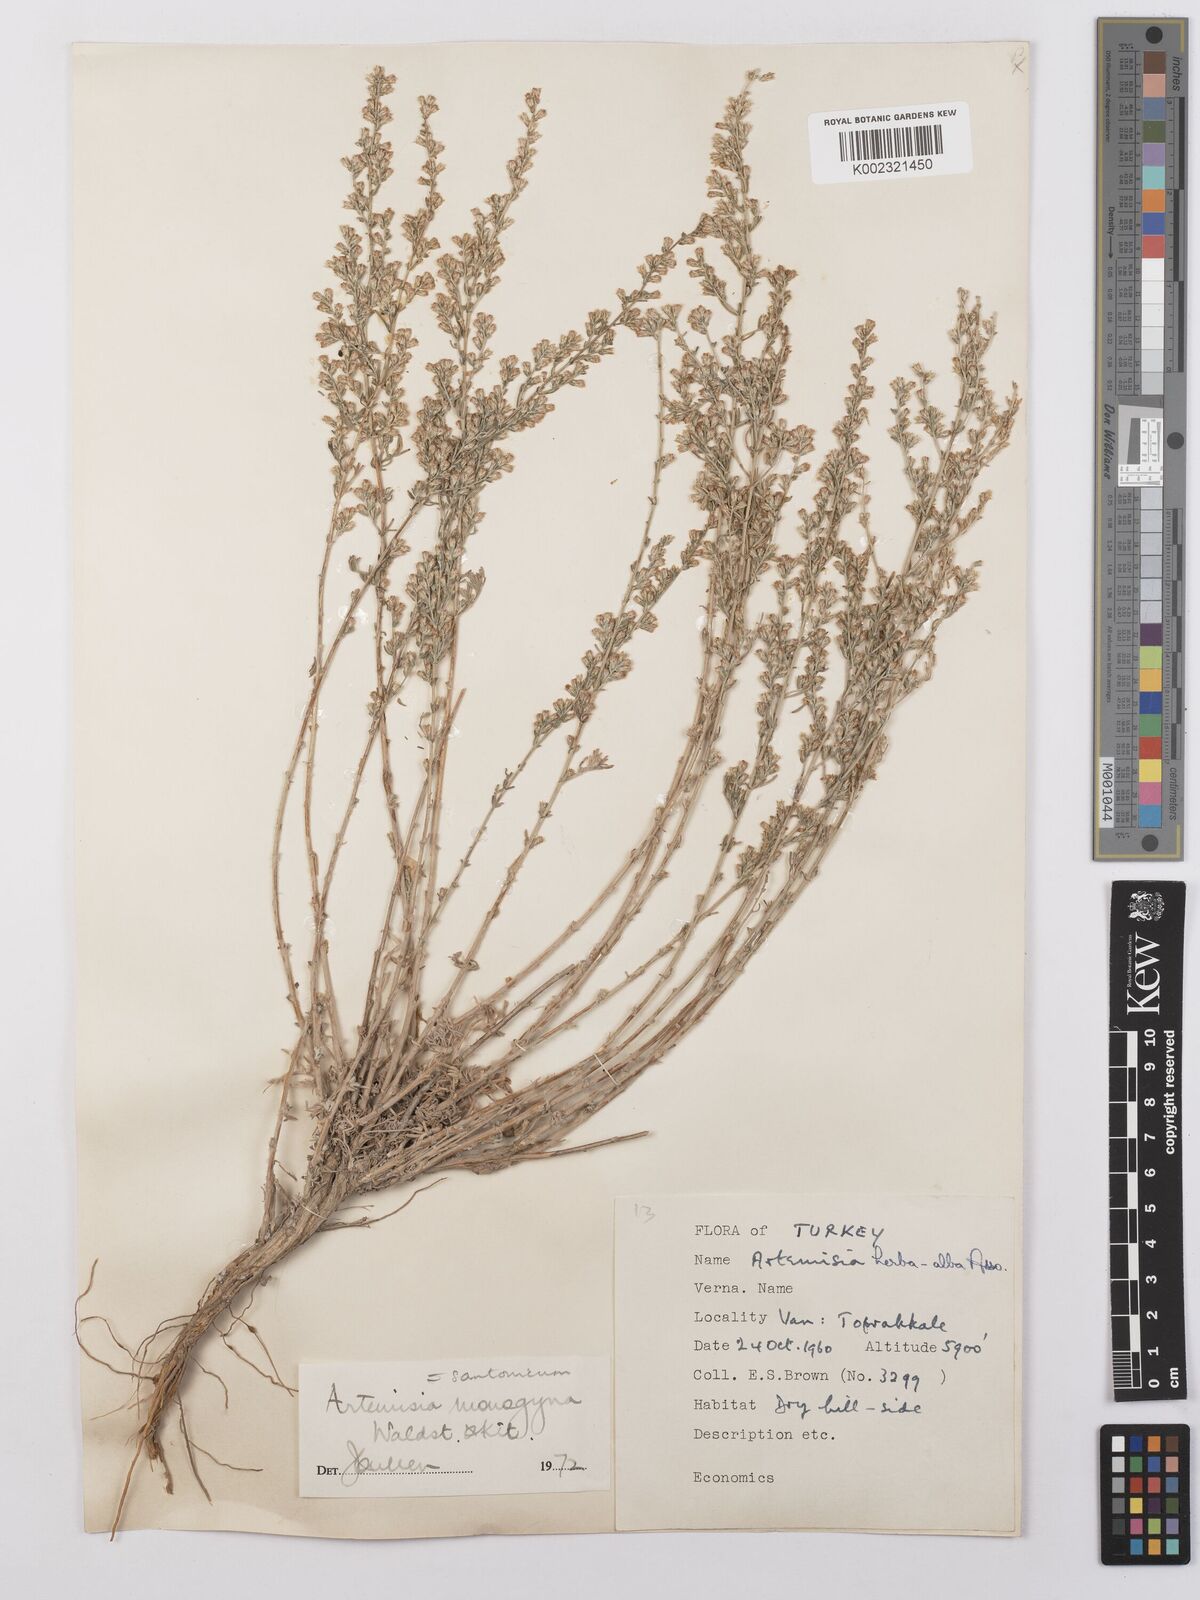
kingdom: Plantae
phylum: Tracheophyta
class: Magnoliopsida
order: Asterales
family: Asteraceae
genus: Artemisia
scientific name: Artemisia santonicum
